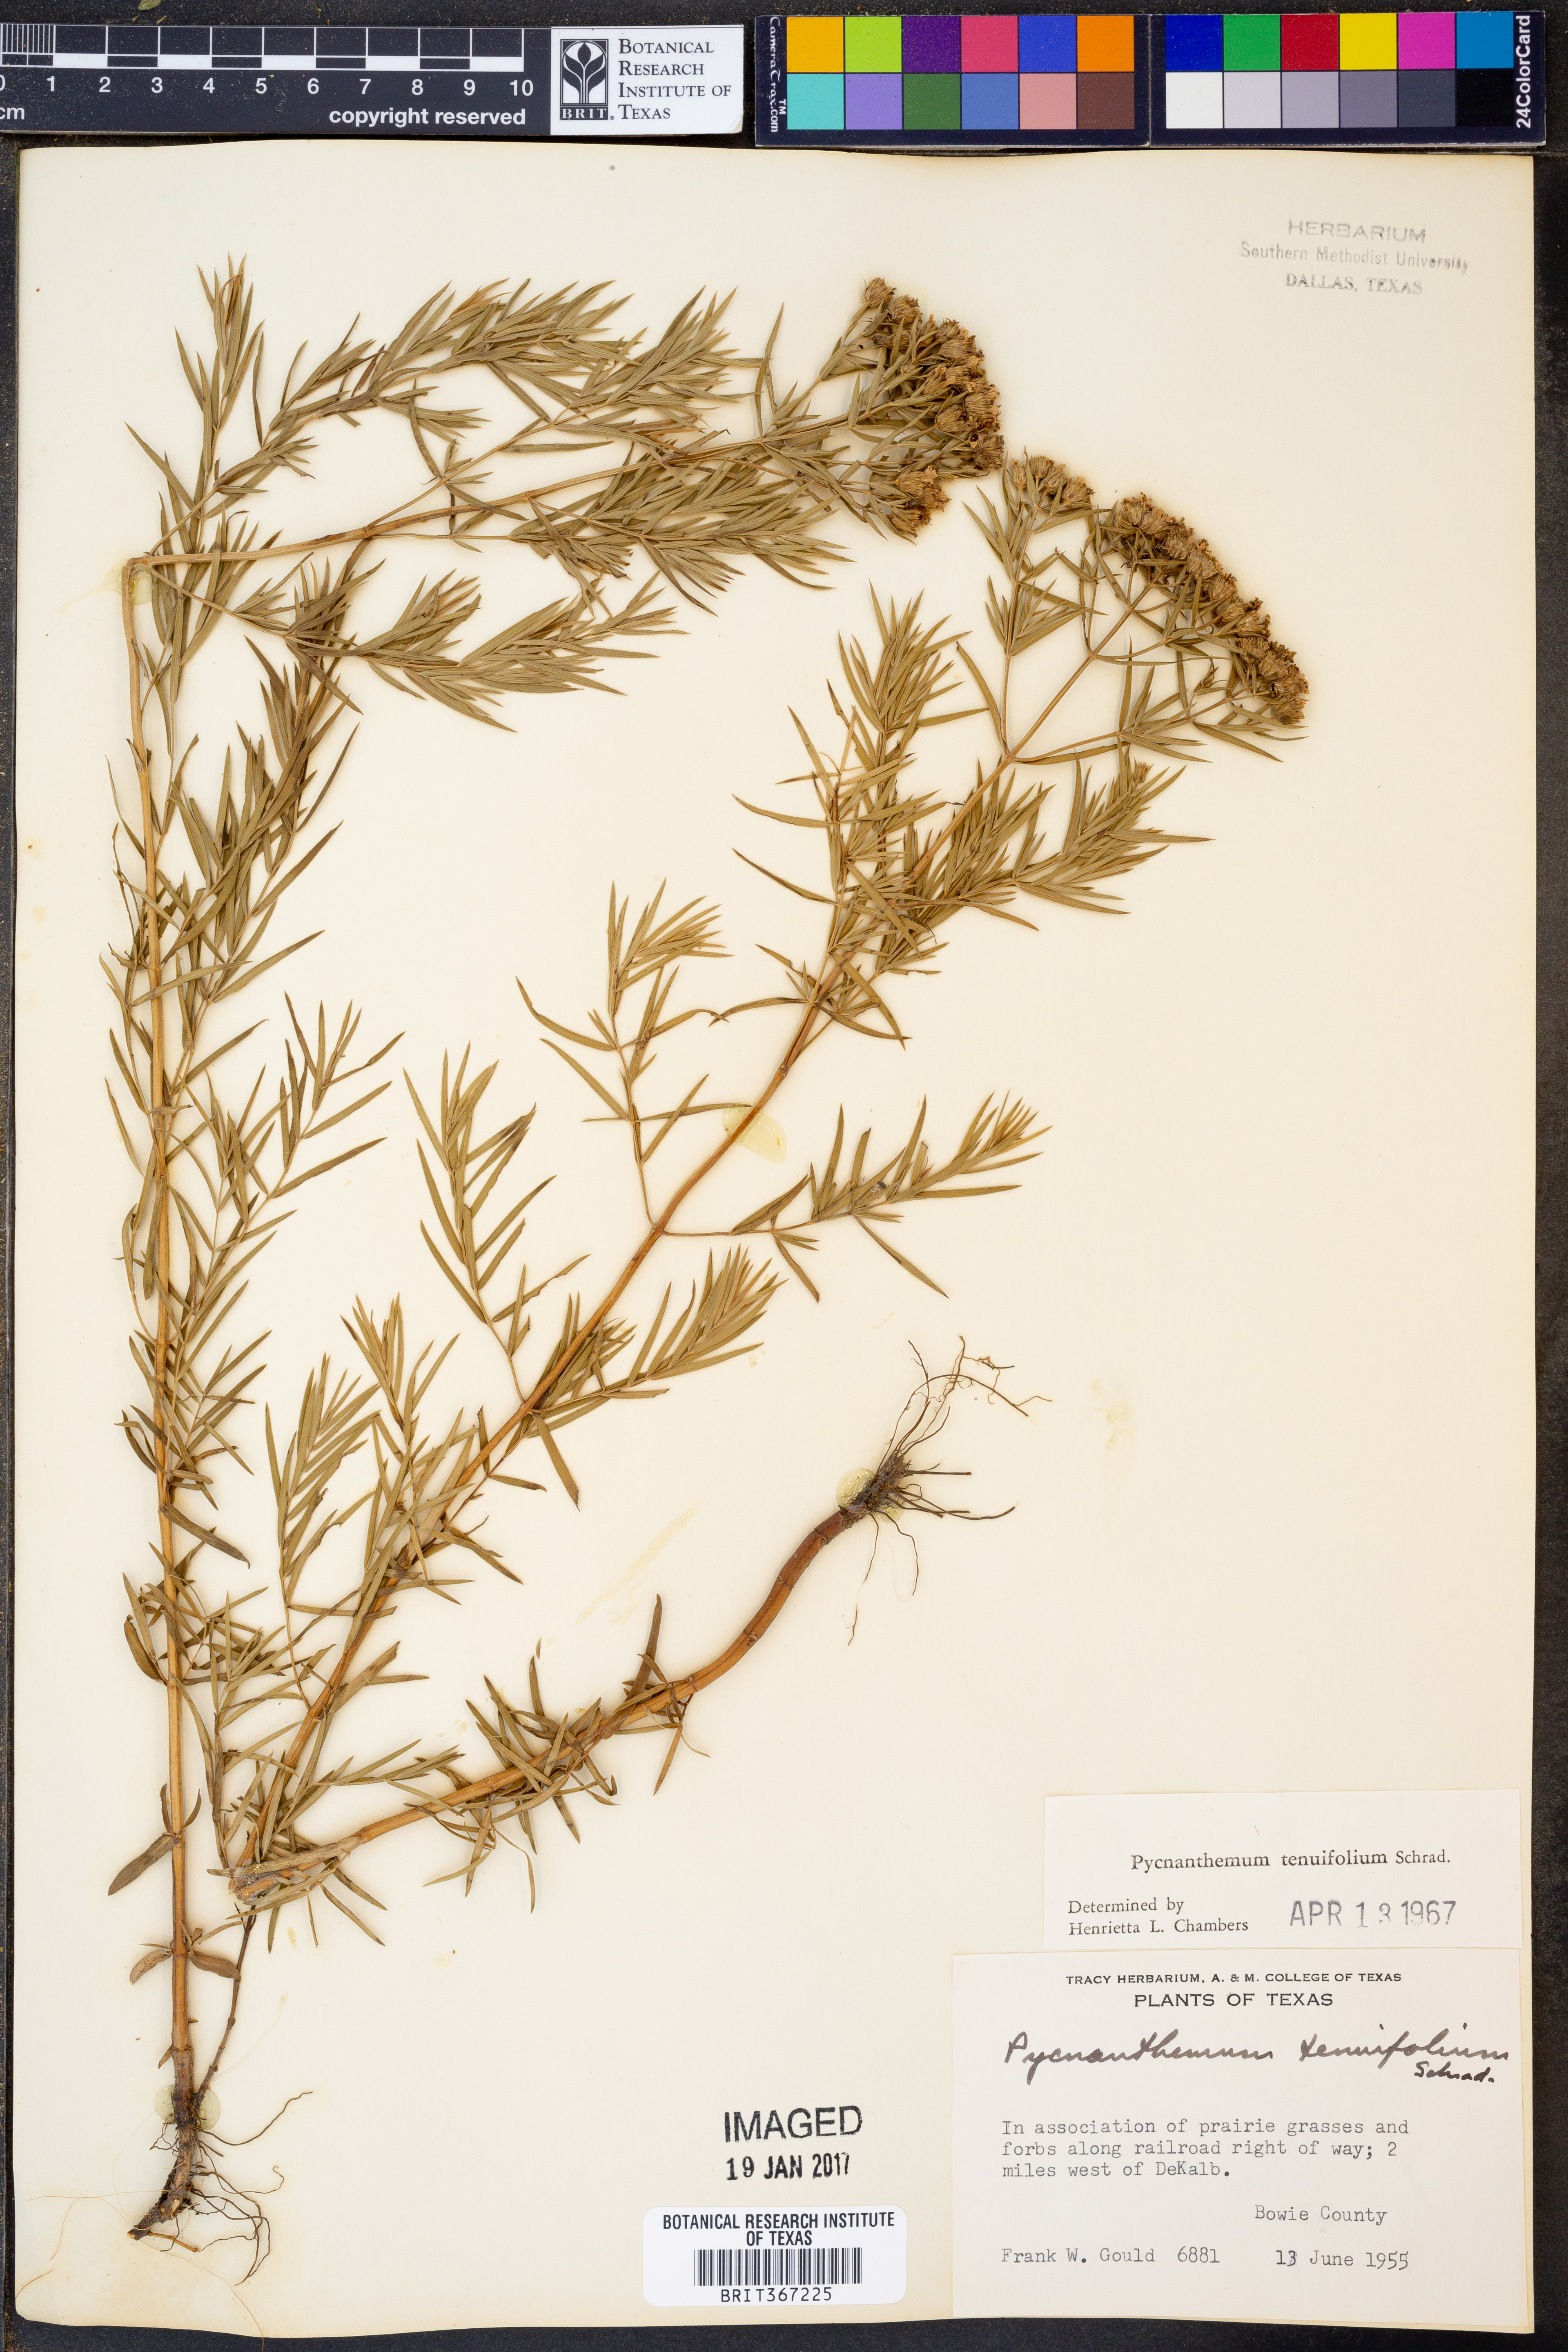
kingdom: Plantae
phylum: Tracheophyta
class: Magnoliopsida
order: Lamiales
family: Lamiaceae
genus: Pycnanthemum
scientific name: Pycnanthemum tenuifolium
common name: Narrow-leaf mountain-mint
